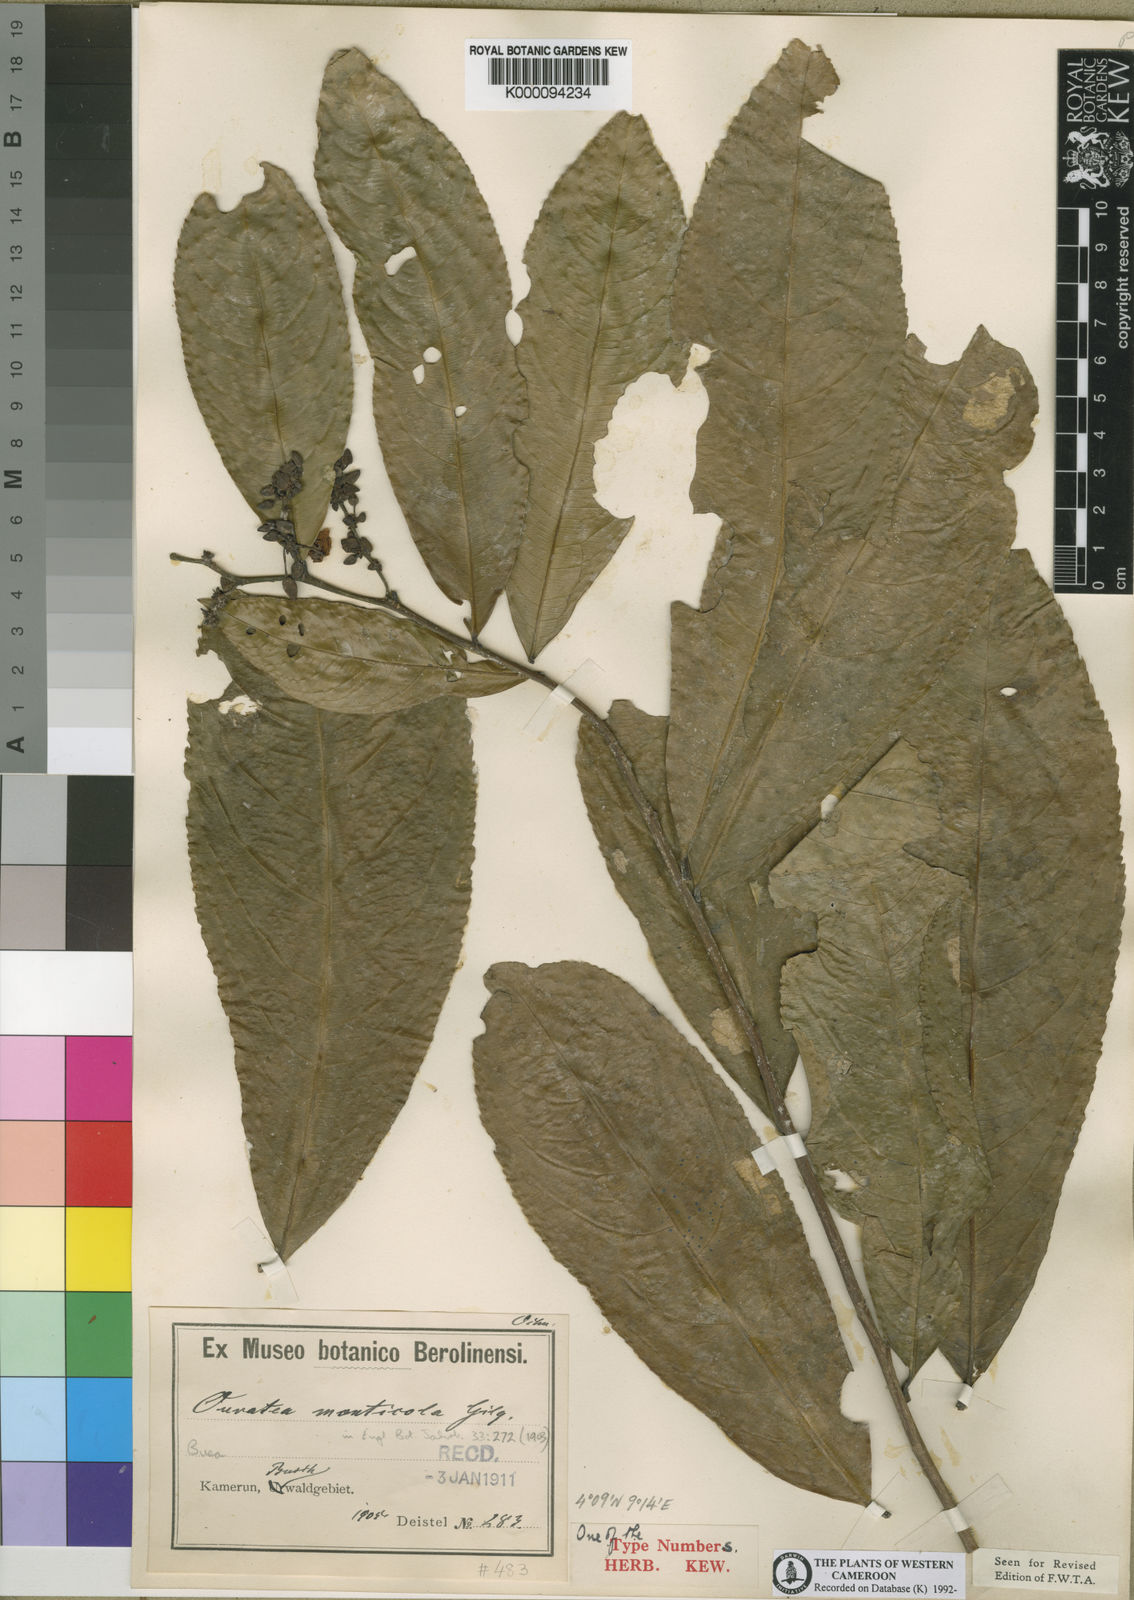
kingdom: Plantae
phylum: Tracheophyta
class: Magnoliopsida
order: Malpighiales
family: Ochnaceae
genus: Campylospermum
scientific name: Campylospermum monticola
